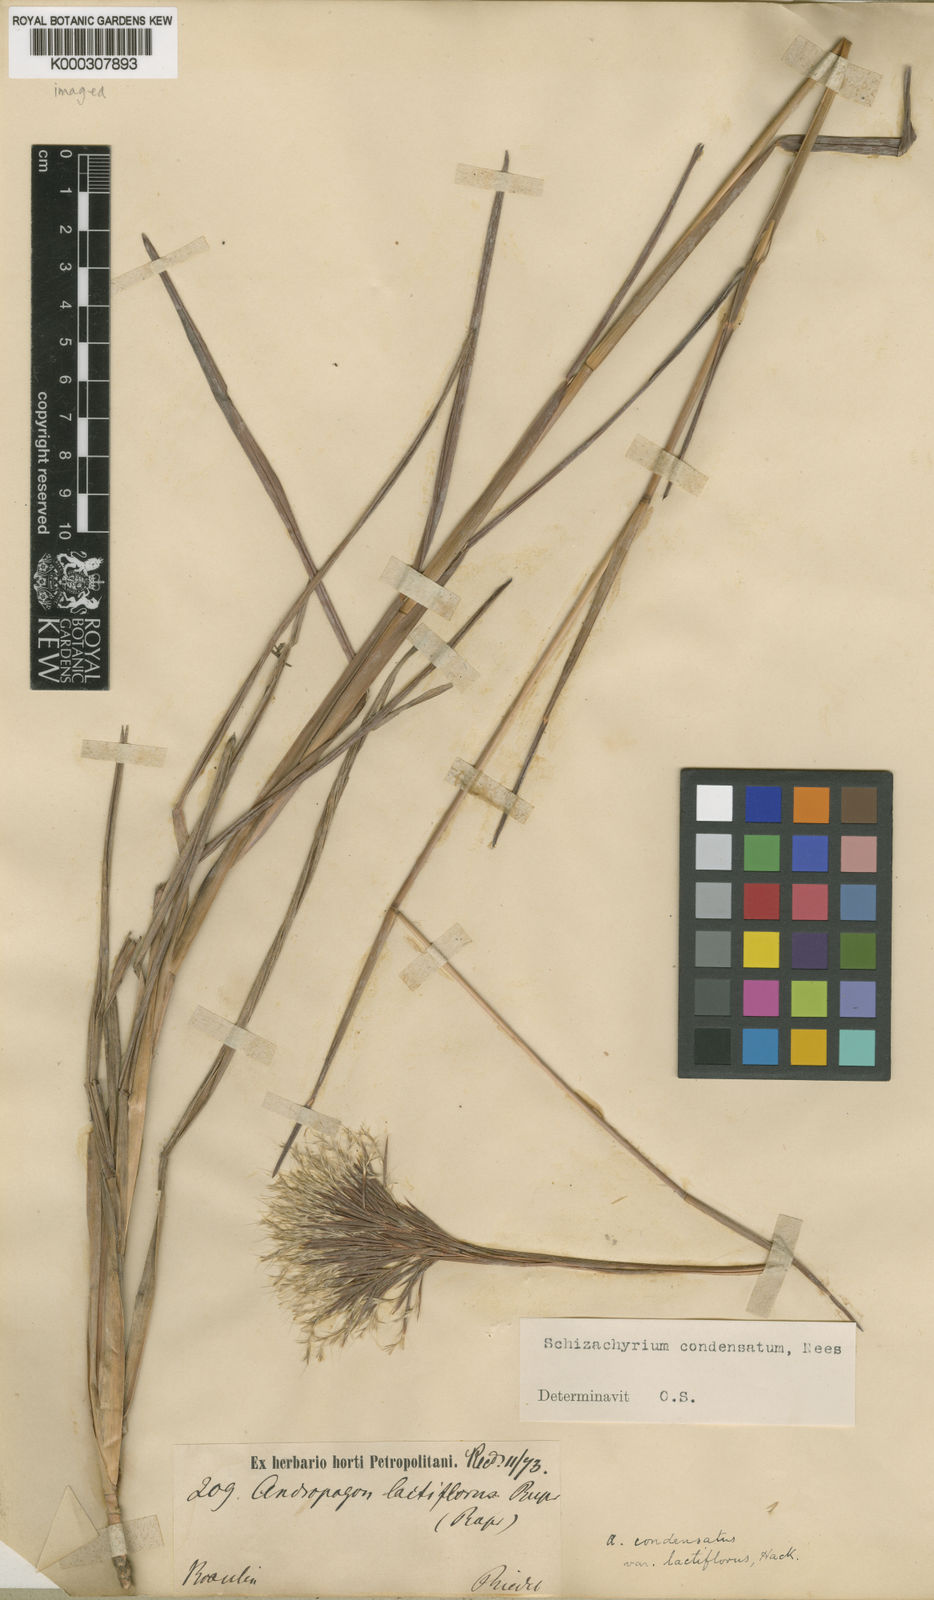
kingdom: Plantae
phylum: Tracheophyta
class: Liliopsida
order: Poales
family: Poaceae
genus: Schizachyrium
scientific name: Schizachyrium condensatum
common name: Bush beardgrass
